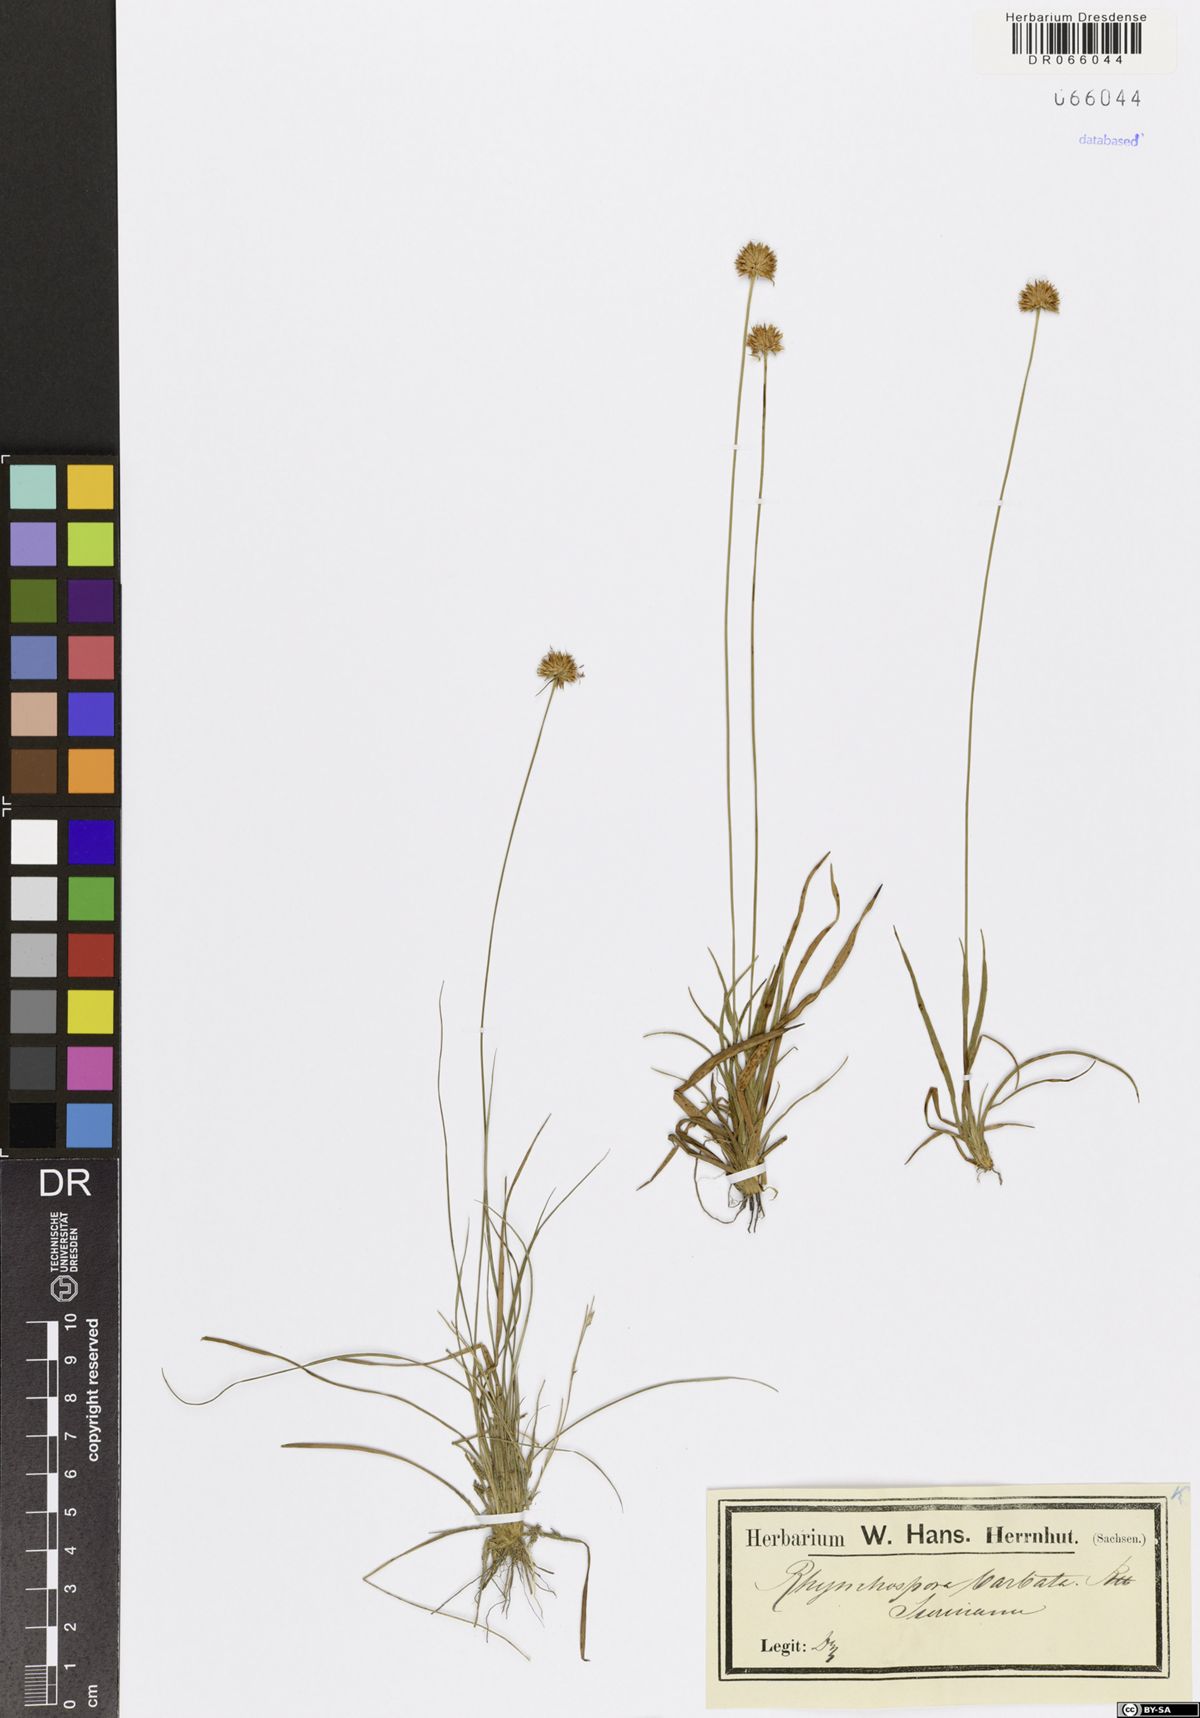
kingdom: Plantae
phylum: Tracheophyta
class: Liliopsida
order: Poales
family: Cyperaceae
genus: Rhynchospora
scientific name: Rhynchospora barbata
